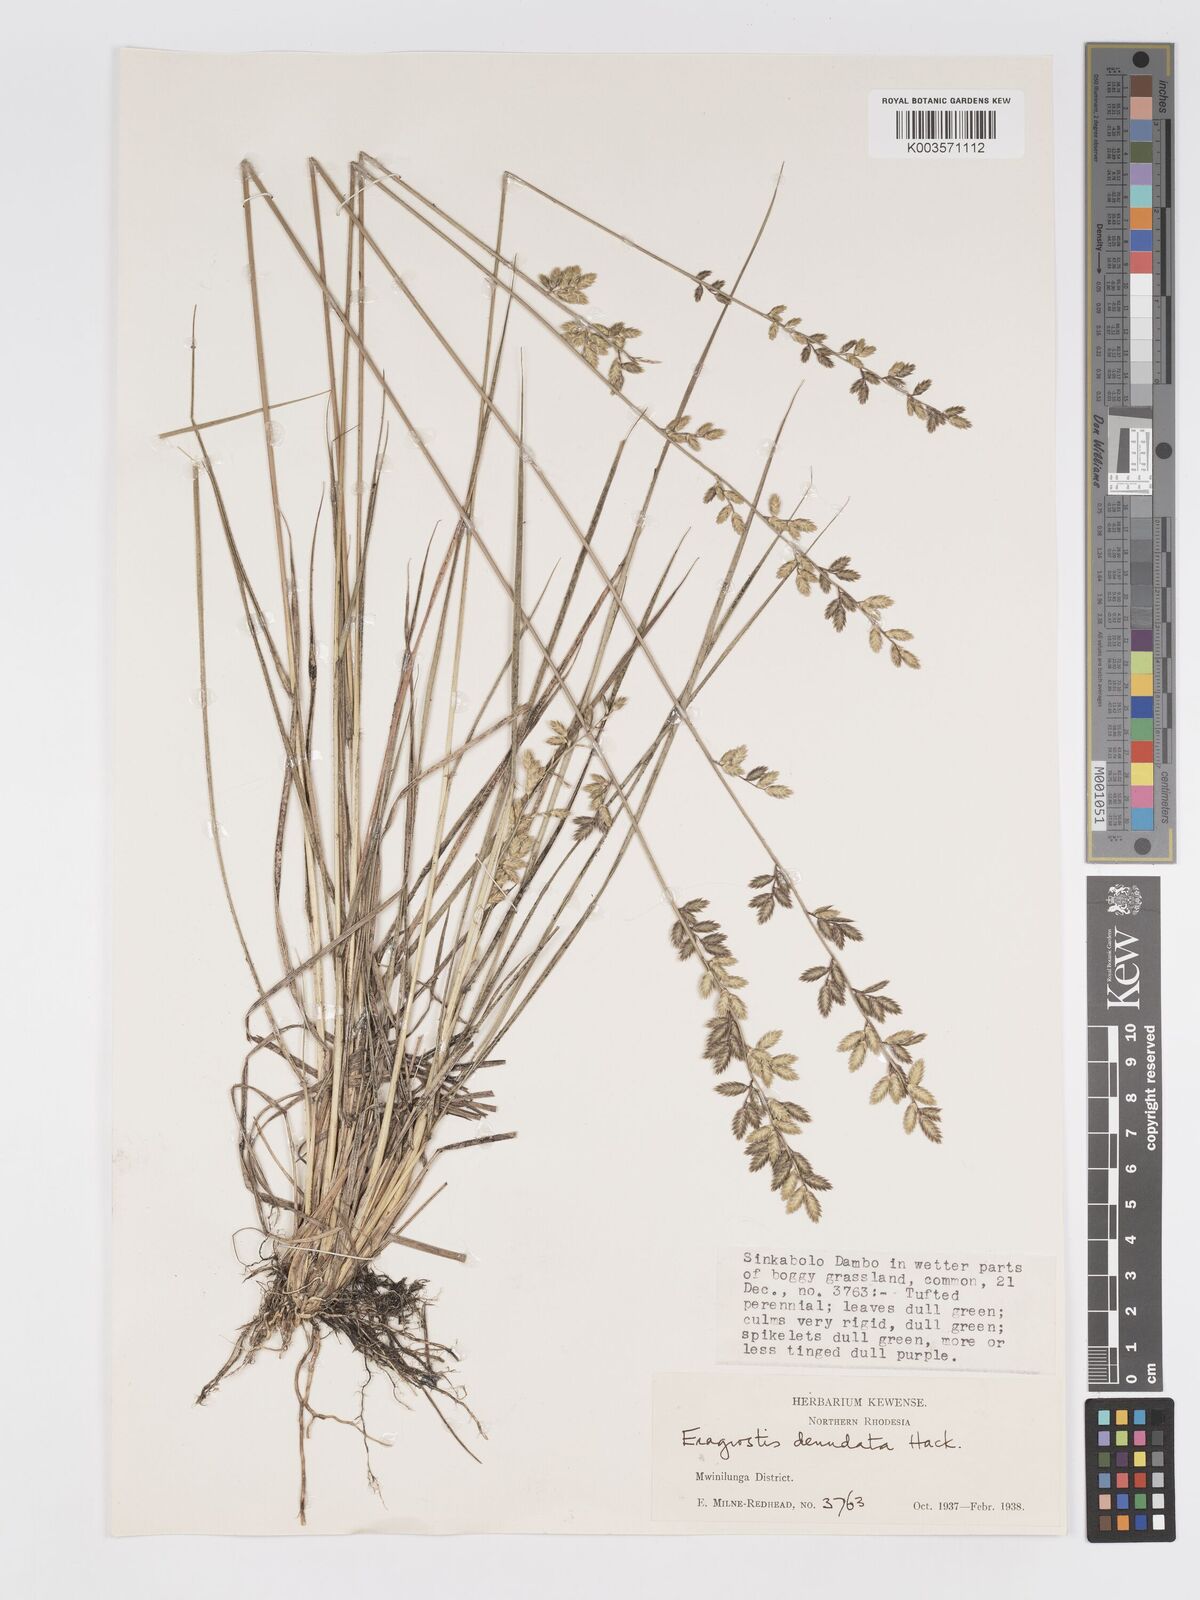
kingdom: Plantae
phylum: Tracheophyta
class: Liliopsida
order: Poales
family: Poaceae
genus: Eragrostis
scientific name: Eragrostis nindensis
